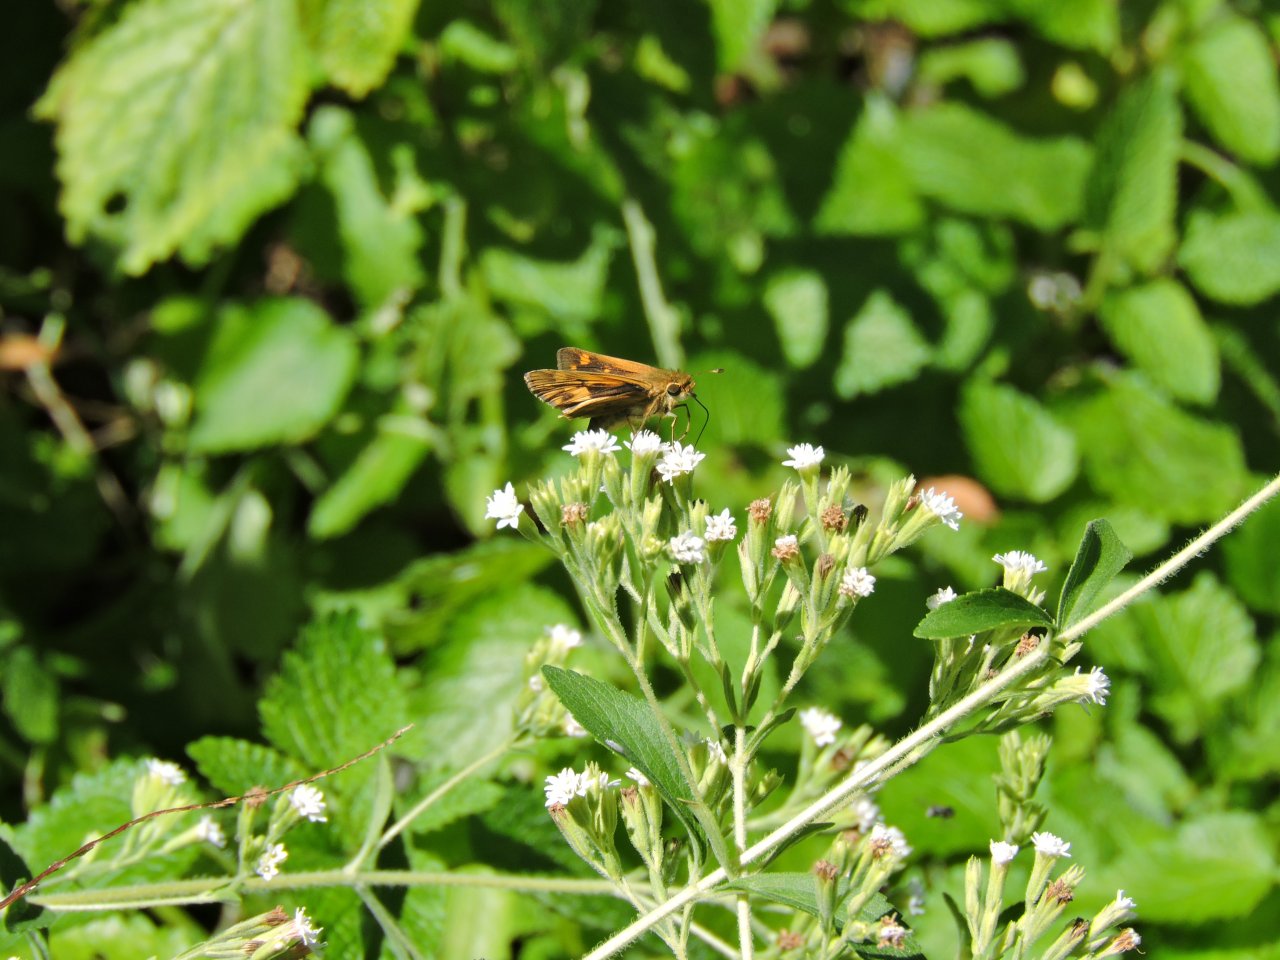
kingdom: Animalia
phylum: Arthropoda
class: Insecta
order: Lepidoptera
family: Hesperiidae
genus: Hylephila
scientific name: Hylephila phyleus
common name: Fiery Skipper
